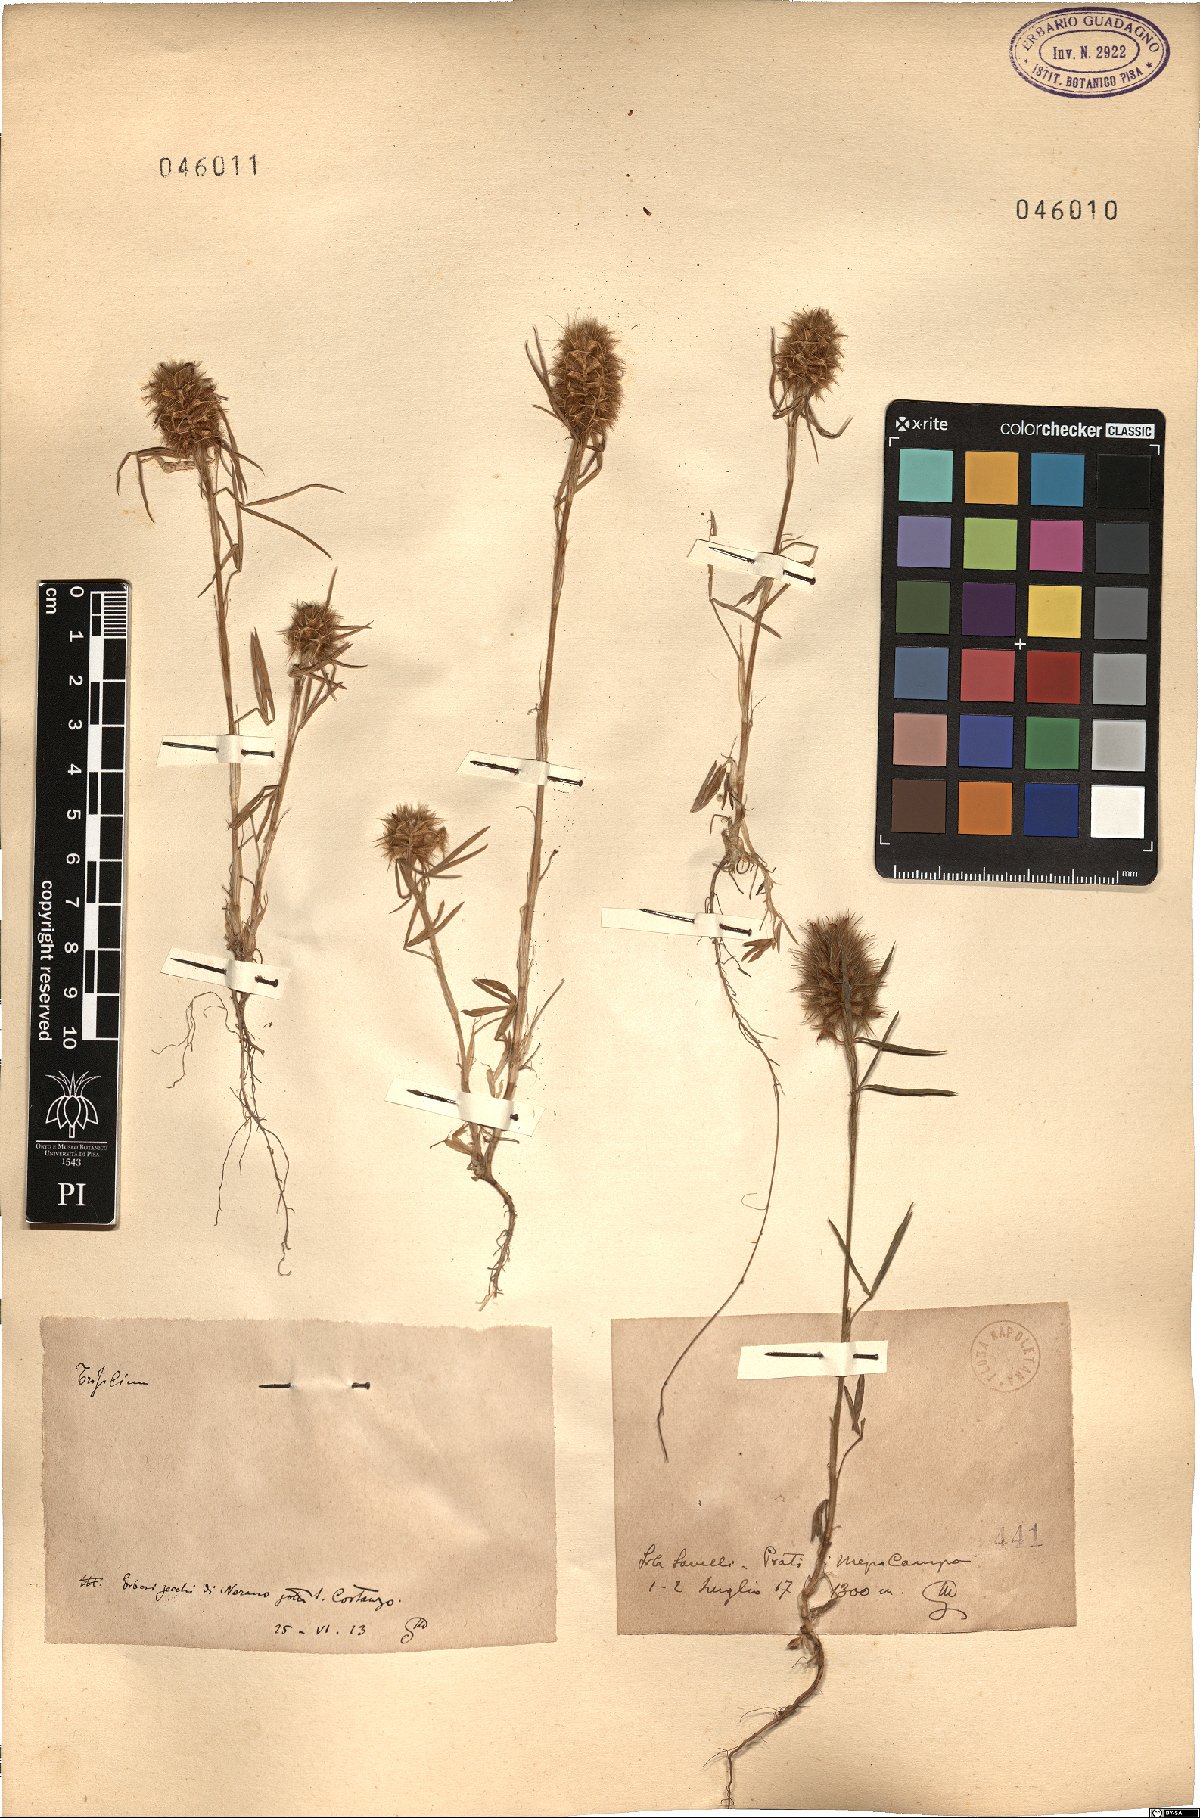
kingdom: Plantae
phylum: Tracheophyta
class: Magnoliopsida
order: Fabales
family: Fabaceae
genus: Trifolium
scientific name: Trifolium
